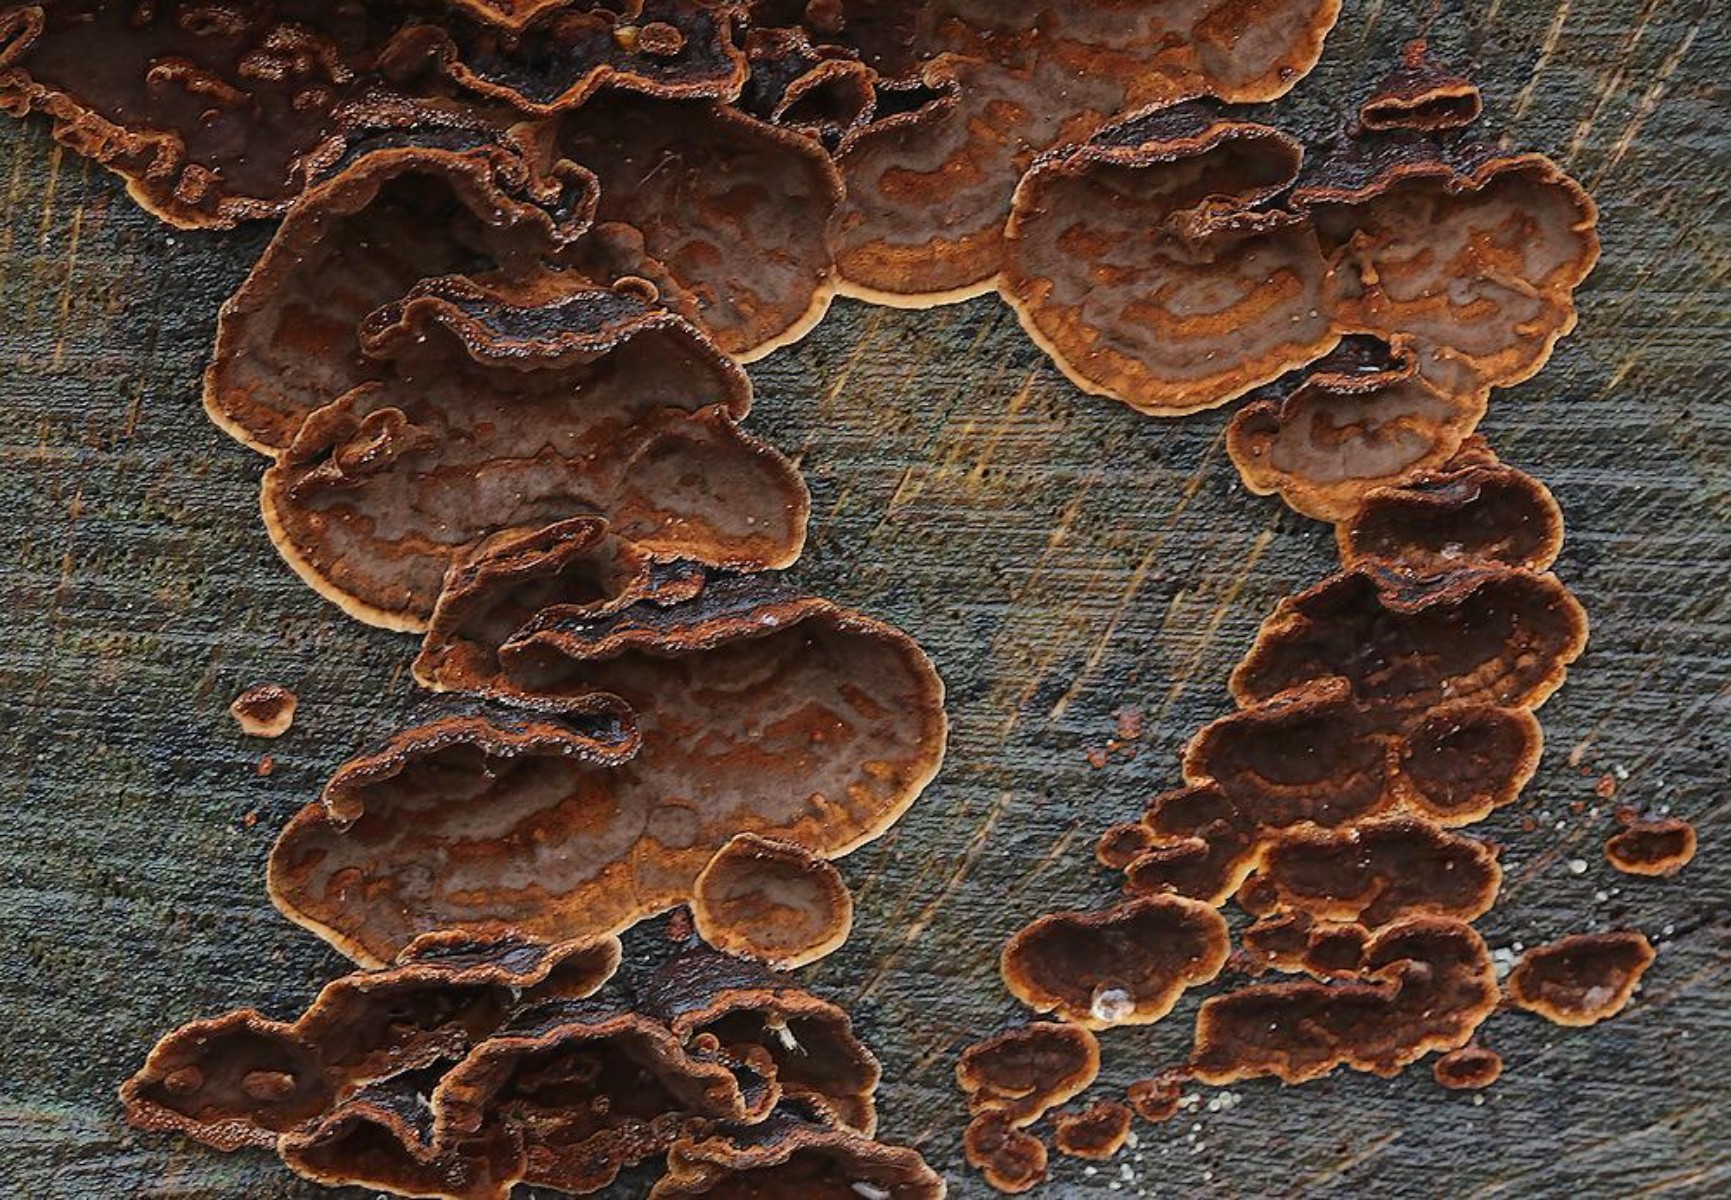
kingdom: Fungi
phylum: Basidiomycota
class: Agaricomycetes
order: Hymenochaetales
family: Hymenochaetaceae
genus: Hymenochaete
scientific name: Hymenochaete rubiginosa
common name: stiv ruslædersvamp
